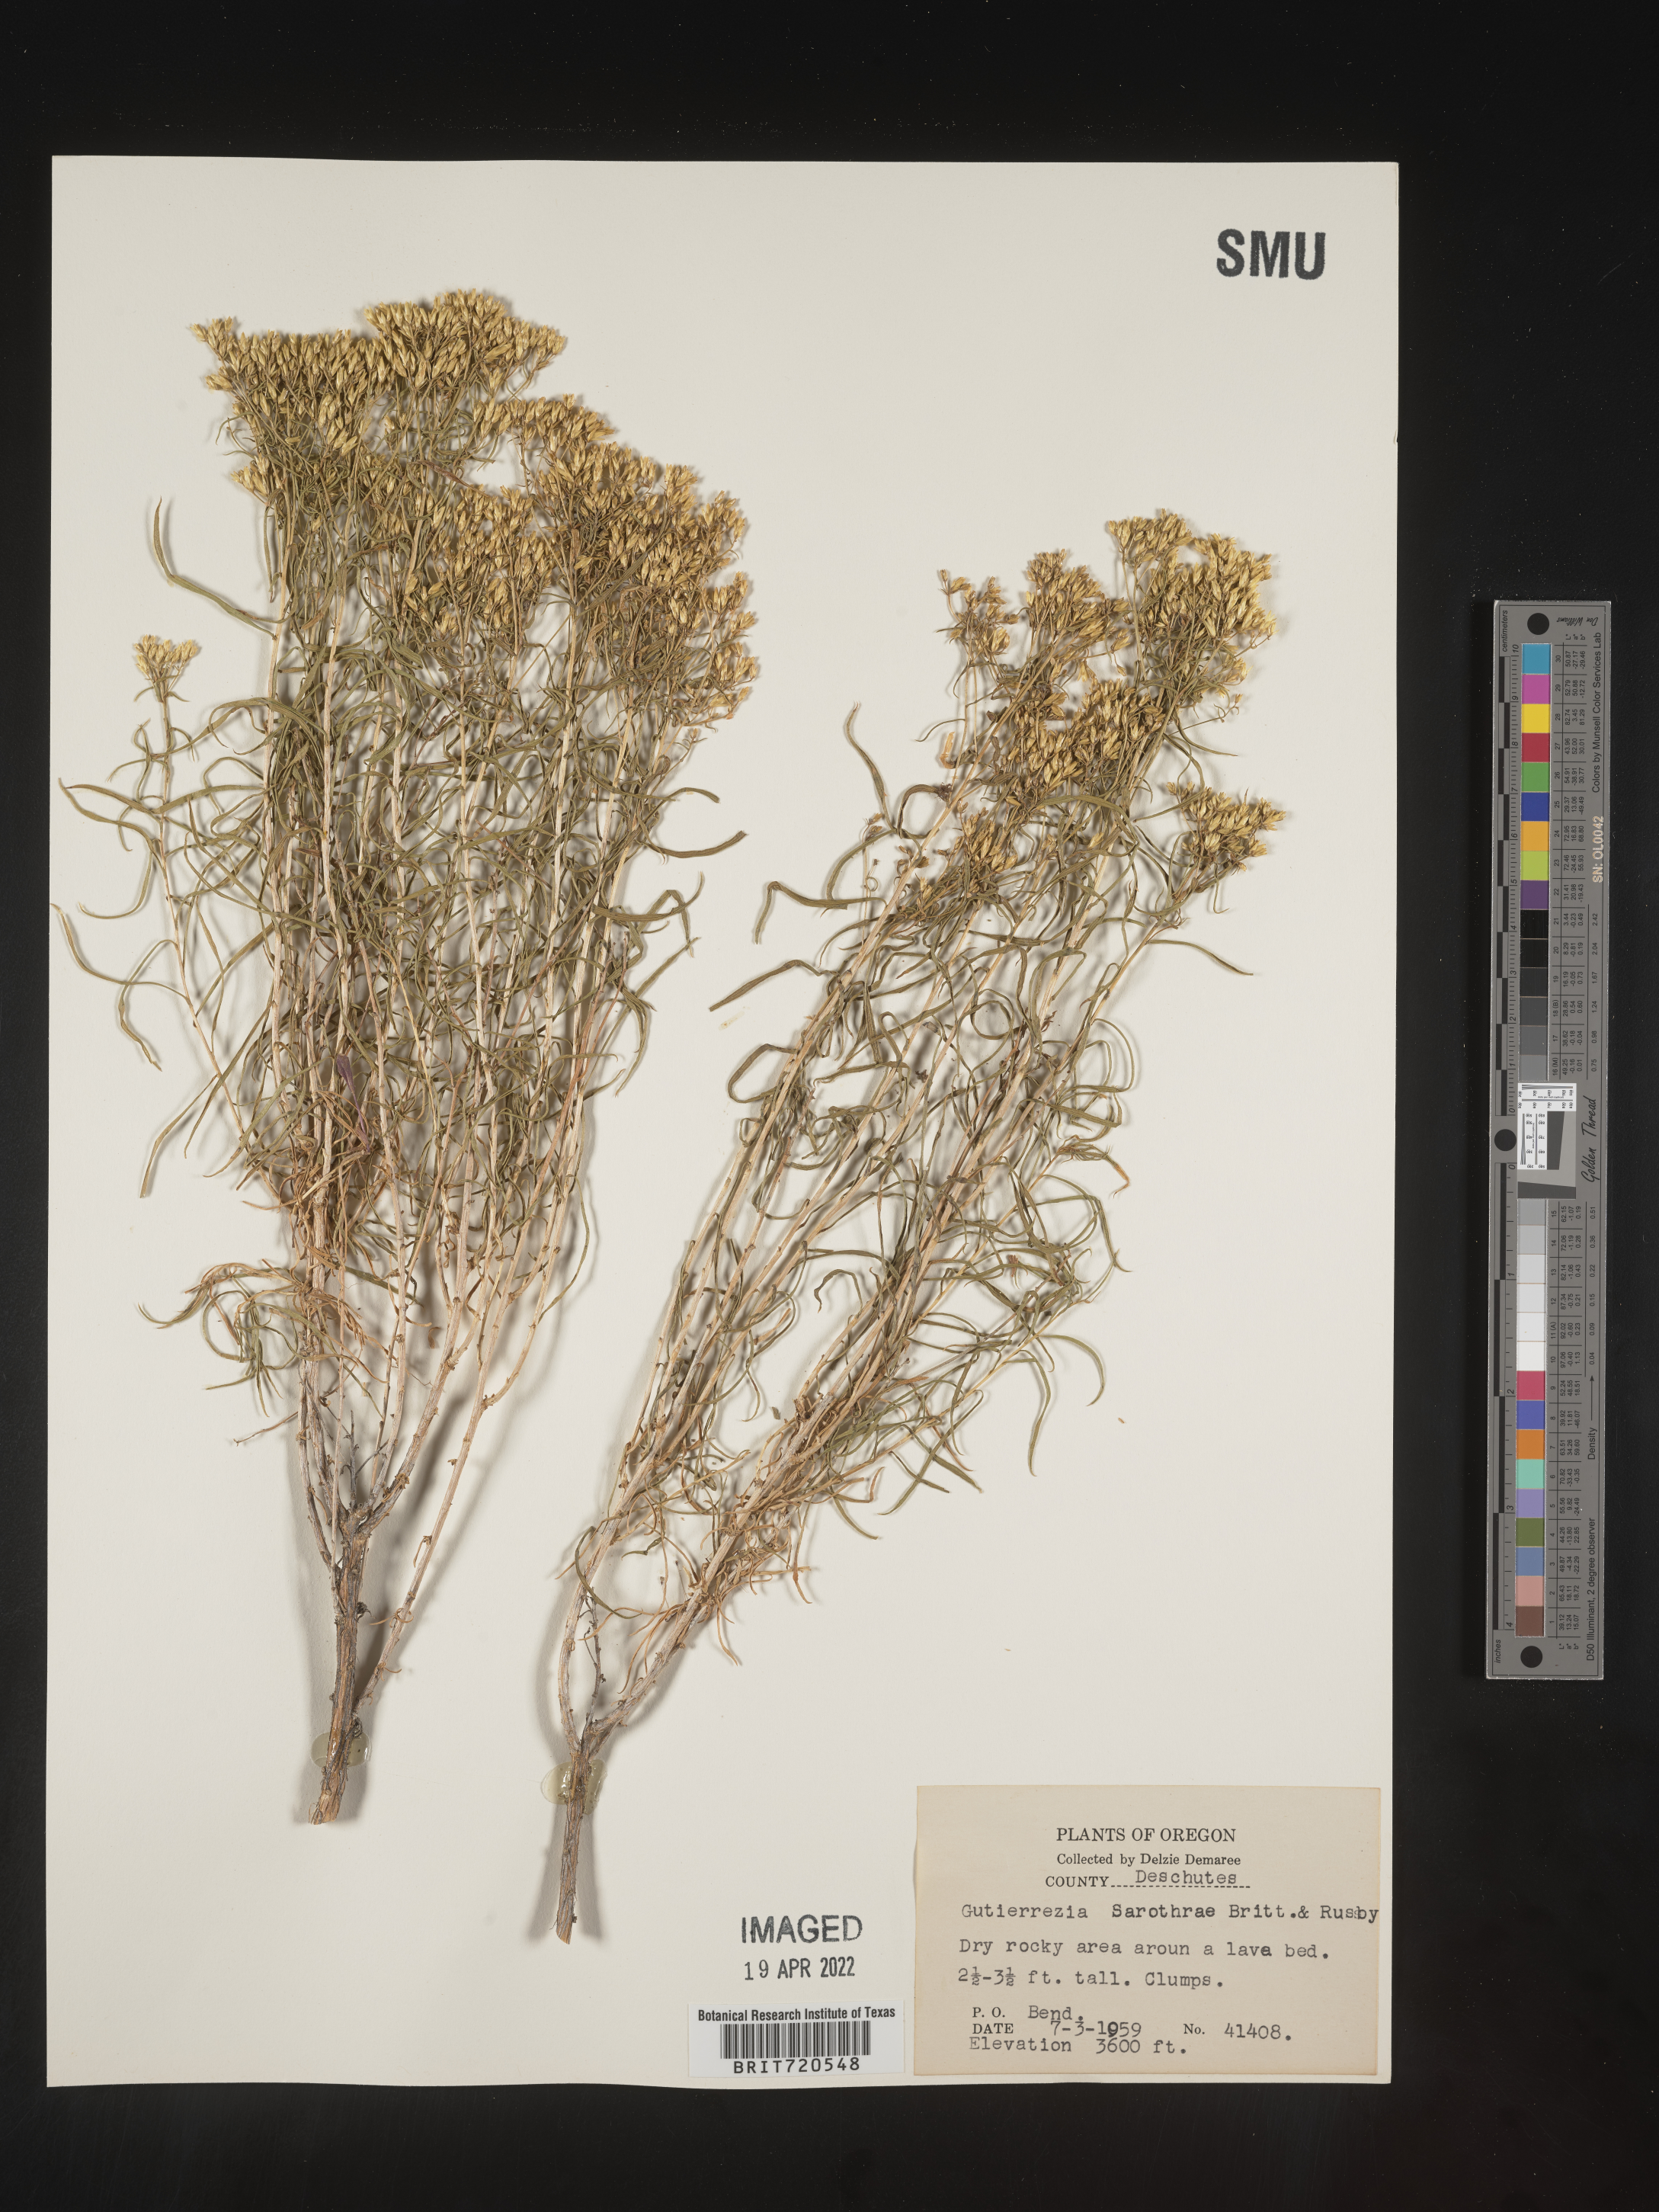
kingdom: Plantae
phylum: Tracheophyta
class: Magnoliopsida
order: Asterales
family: Asteraceae
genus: Gutierrezia
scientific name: Gutierrezia sarothrae
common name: Broom snakeweed
